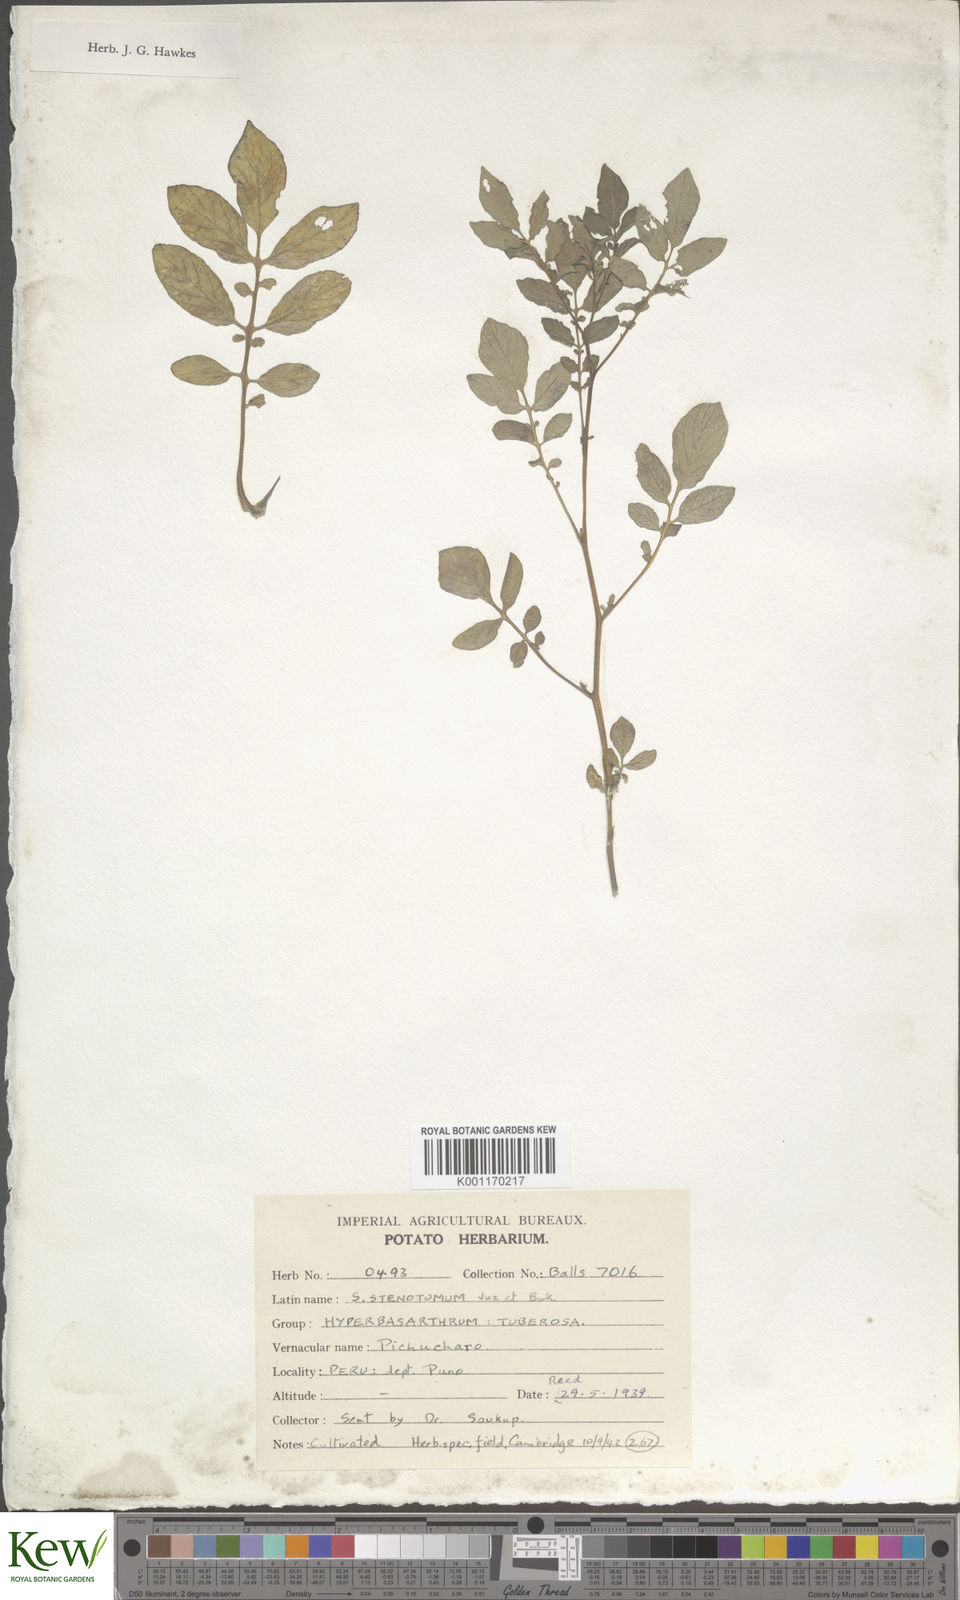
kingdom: Plantae
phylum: Tracheophyta
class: Magnoliopsida
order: Solanales
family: Solanaceae
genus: Solanum
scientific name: Solanum tuberosum
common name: Potato
